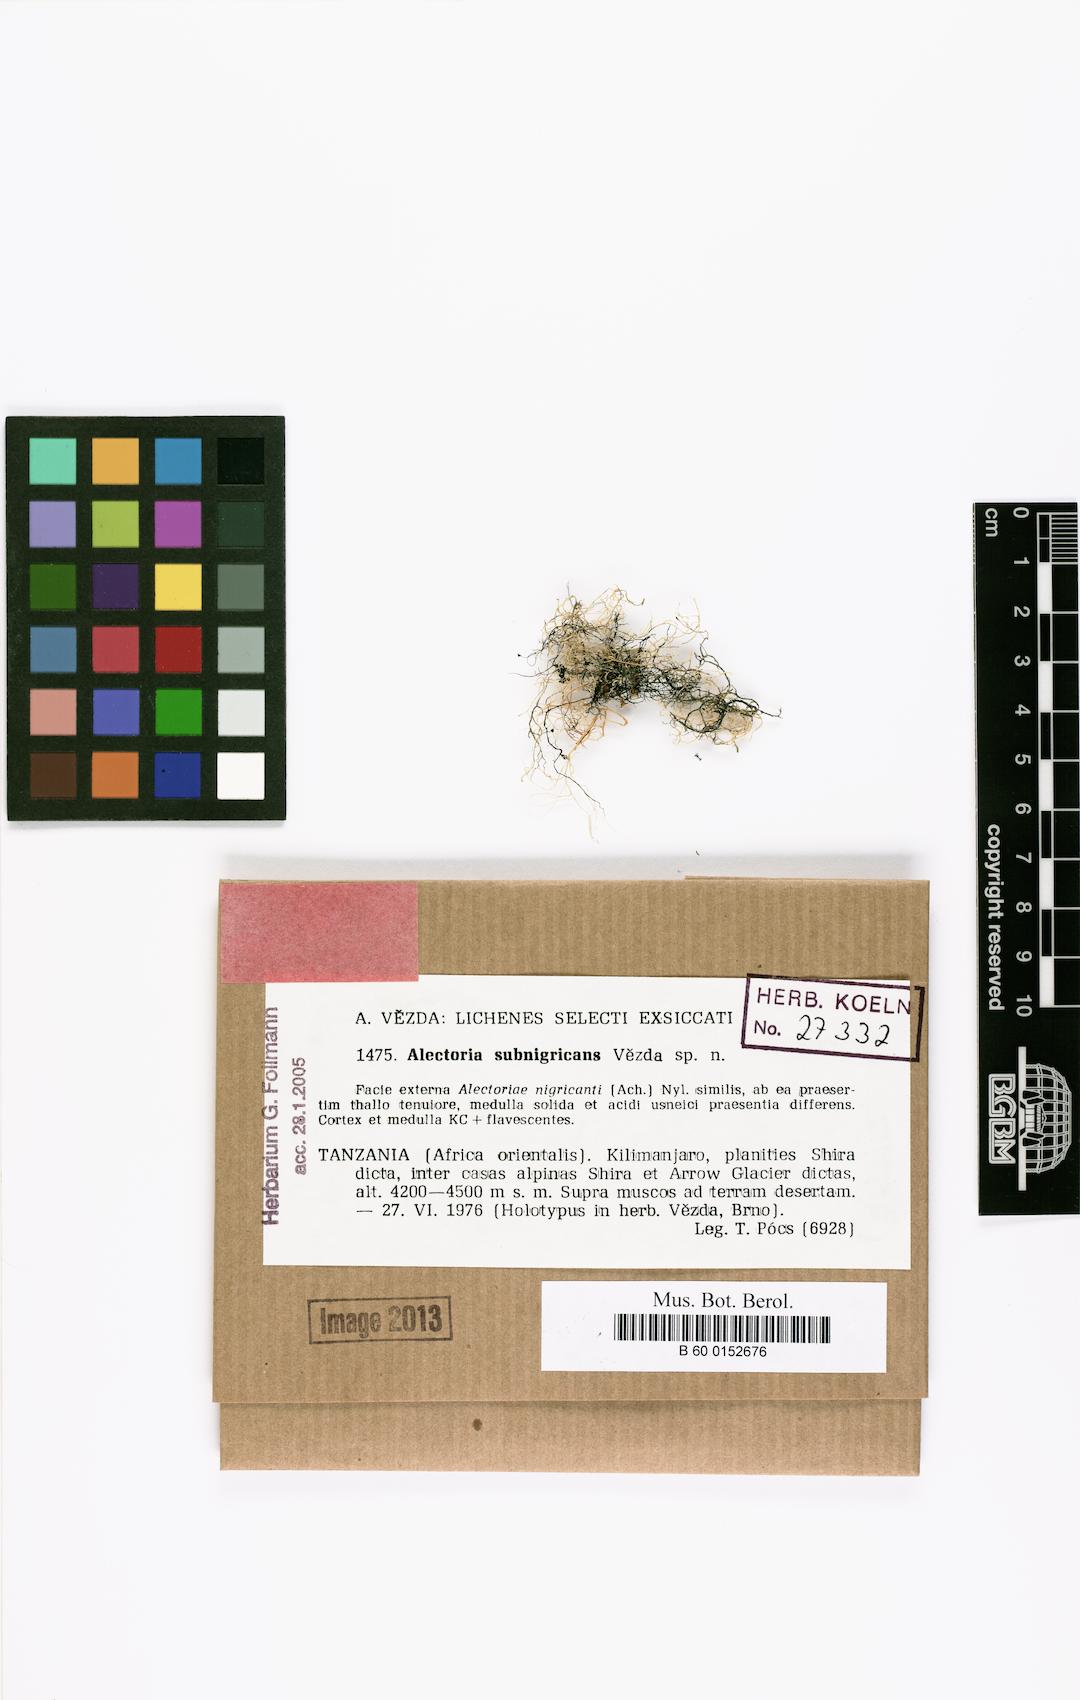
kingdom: Fungi
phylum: Ascomycota
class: Lecanoromycetes
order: Lecanorales
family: Parmeliaceae
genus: Alectoria
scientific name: Alectoria
